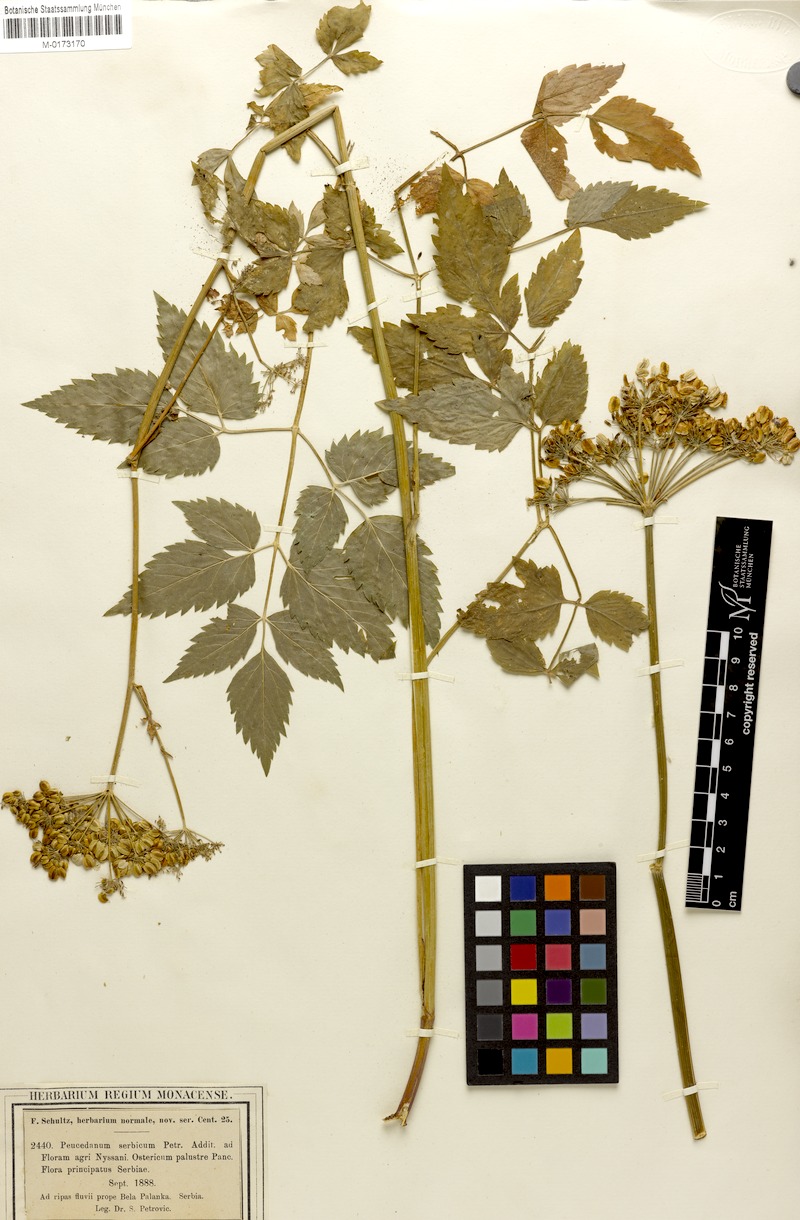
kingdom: Plantae
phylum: Tracheophyta
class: Magnoliopsida
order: Apiales
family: Apiaceae
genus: Rhizomatophora
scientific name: Rhizomatophora aegopodioides
